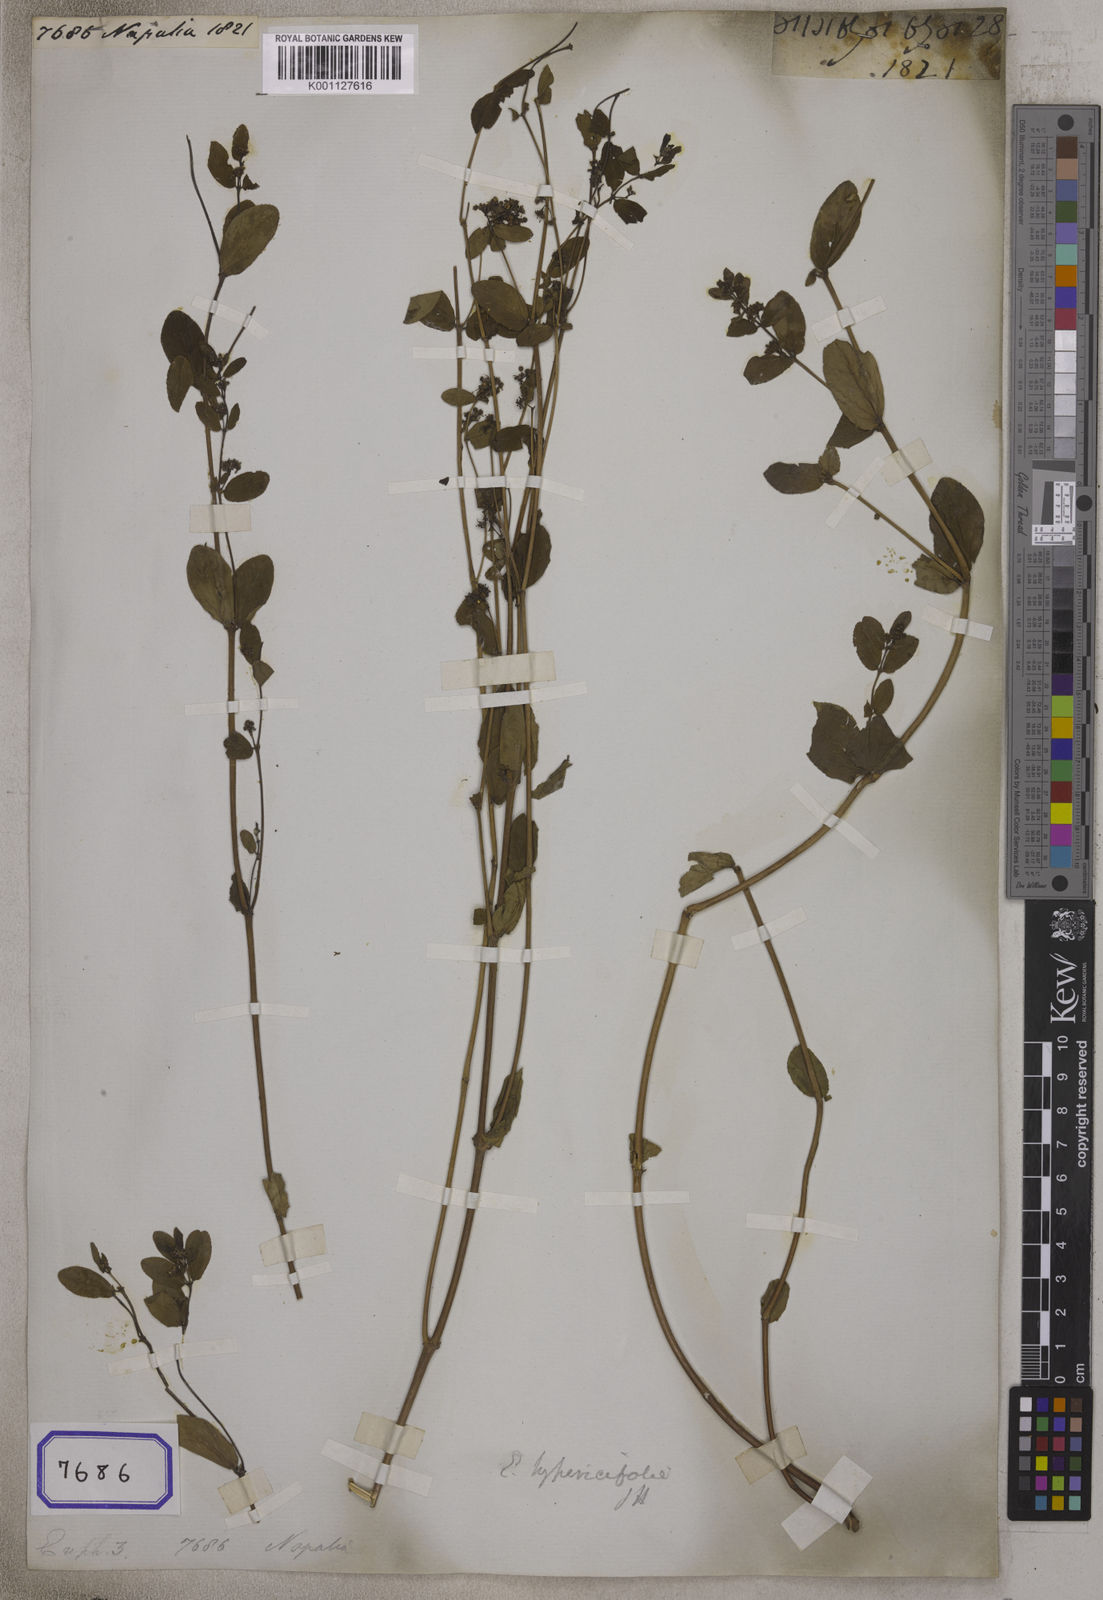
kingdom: Plantae
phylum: Tracheophyta
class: Magnoliopsida
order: Malpighiales
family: Euphorbiaceae
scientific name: Euphorbiaceae
